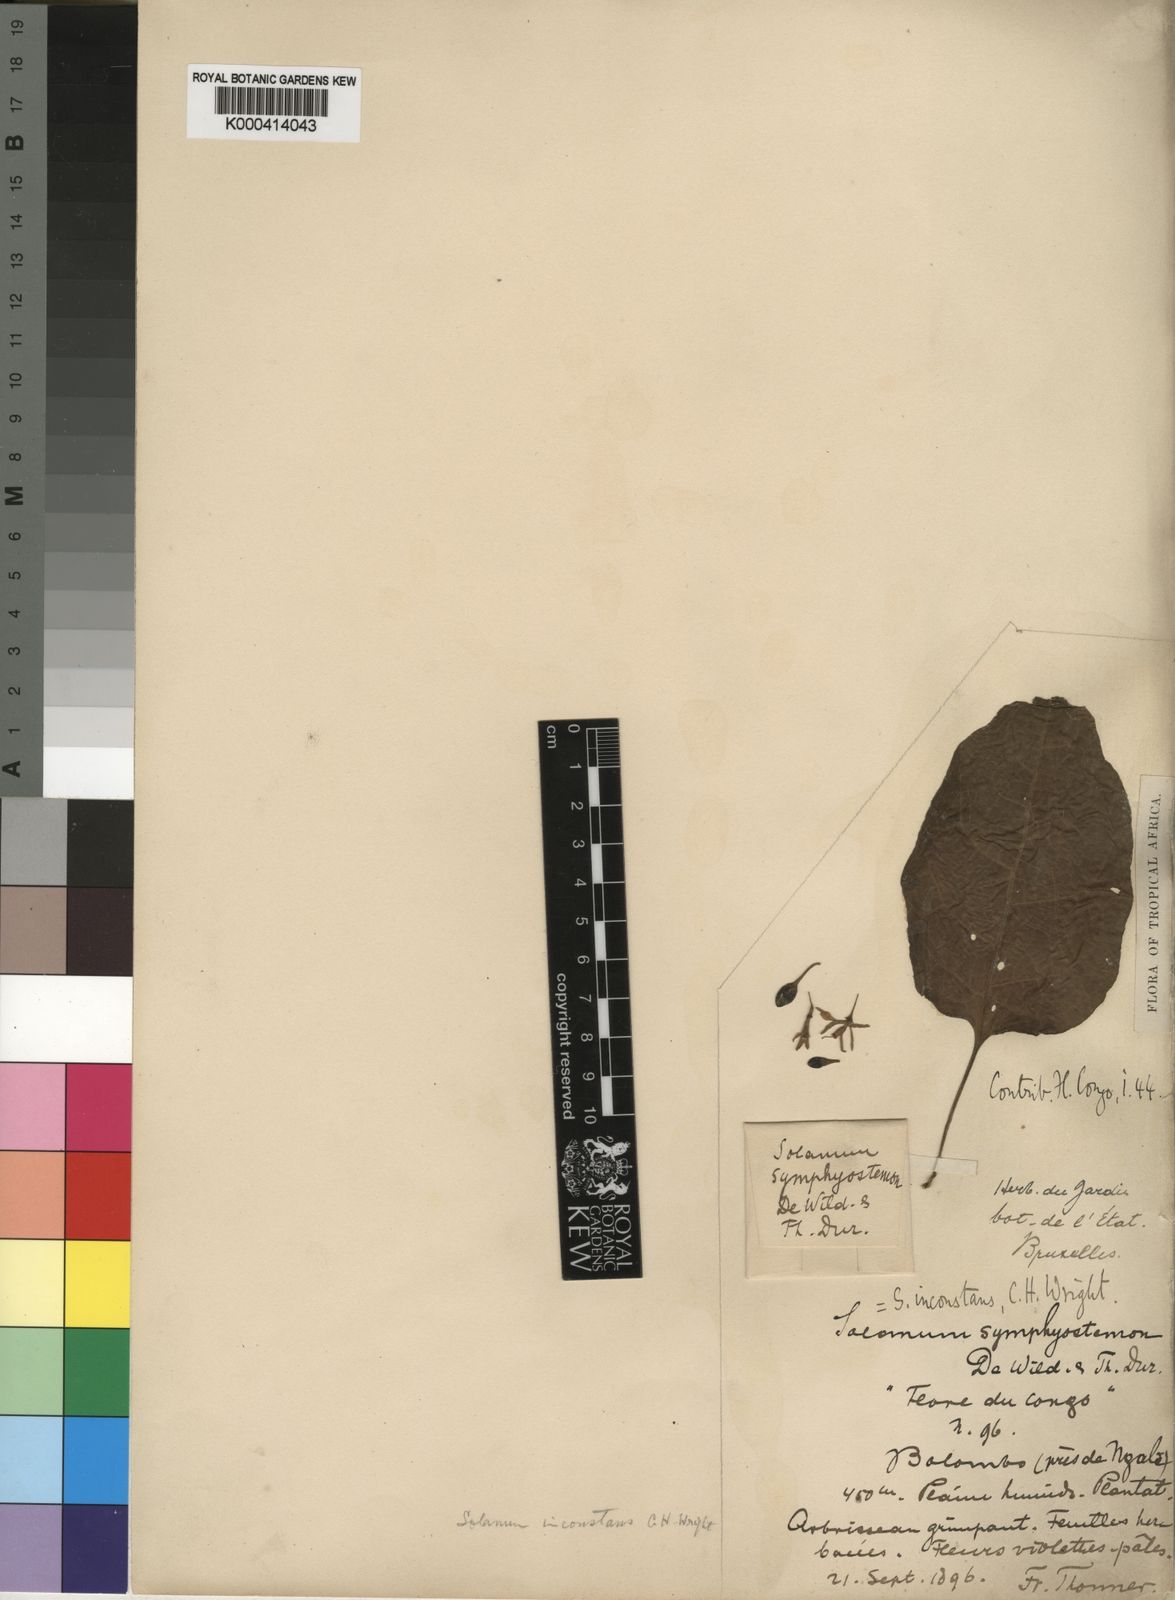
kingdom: Plantae
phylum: Tracheophyta
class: Magnoliopsida
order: Solanales
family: Solanaceae
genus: Solanum
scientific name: Solanum terminale
